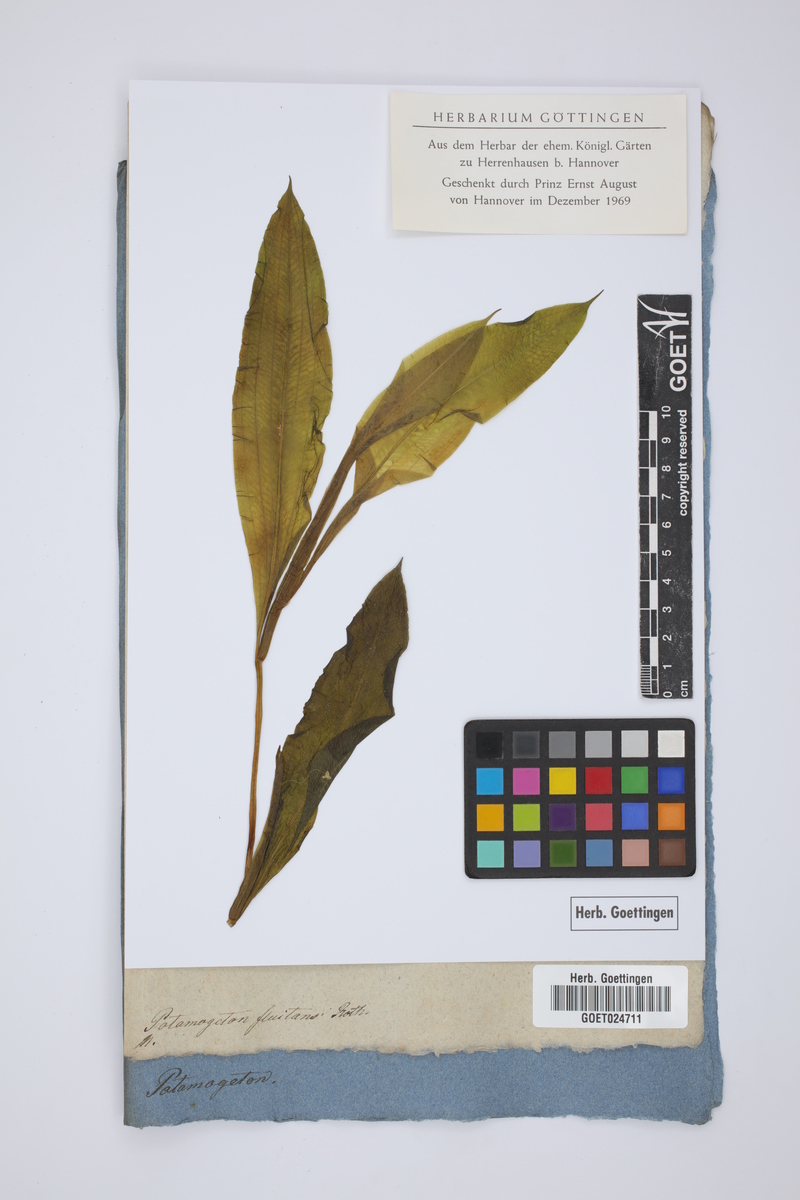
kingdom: Plantae
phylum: Tracheophyta
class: Liliopsida
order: Alismatales
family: Potamogetonaceae
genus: Potamogeton
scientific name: Potamogeton fluitans
